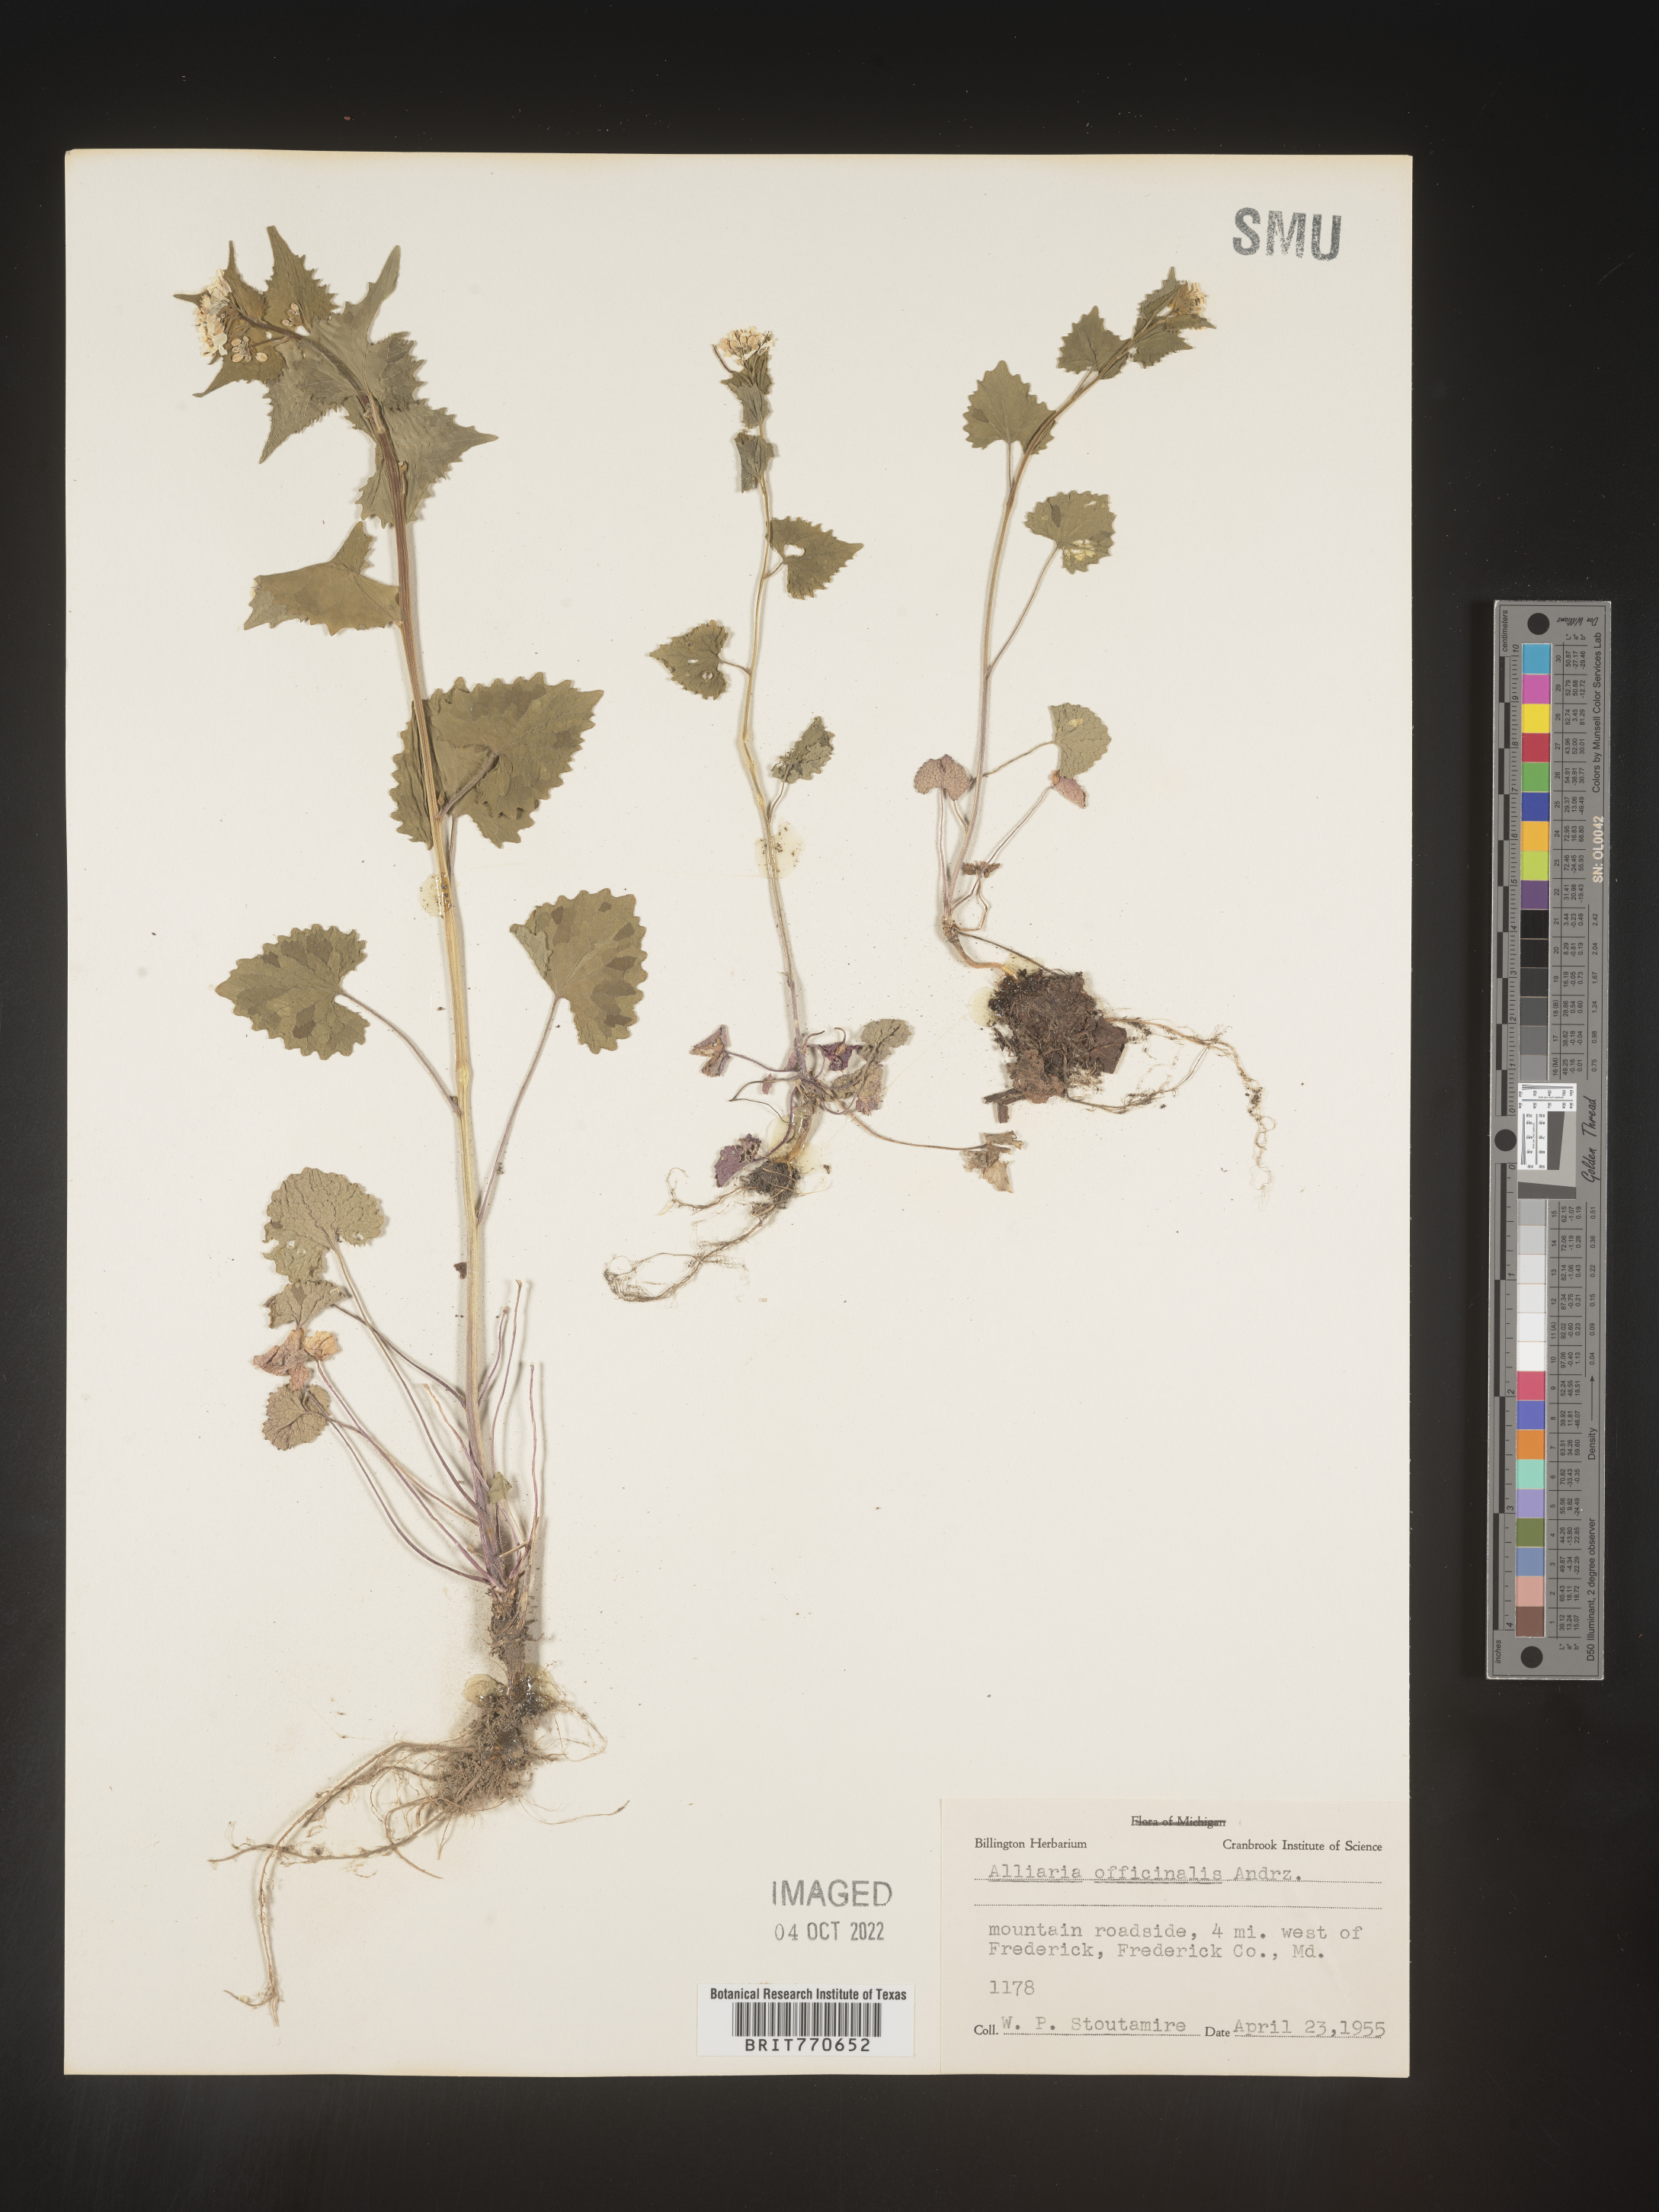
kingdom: Plantae
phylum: Tracheophyta
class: Magnoliopsida
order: Brassicales
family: Brassicaceae
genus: Alliaria
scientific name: Alliaria
